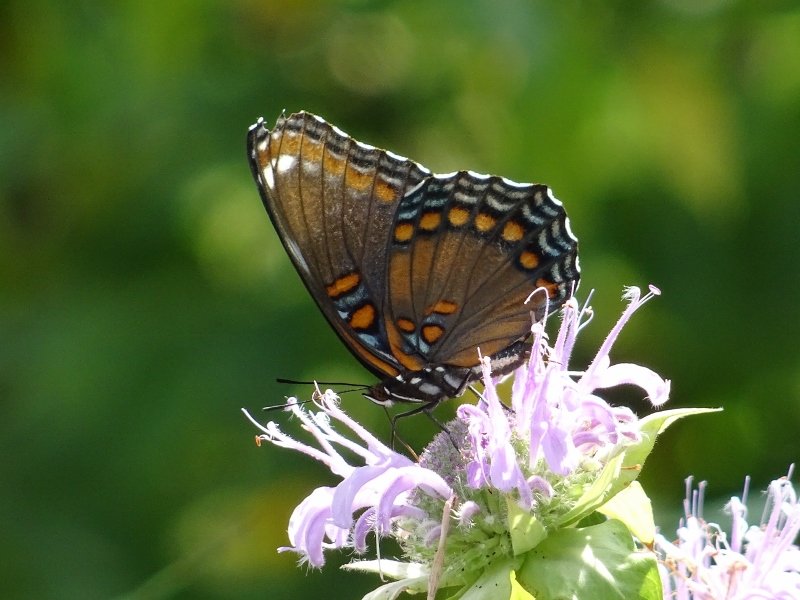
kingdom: Animalia
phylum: Arthropoda
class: Insecta
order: Lepidoptera
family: Nymphalidae
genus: Limenitis
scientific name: Limenitis astyanax
